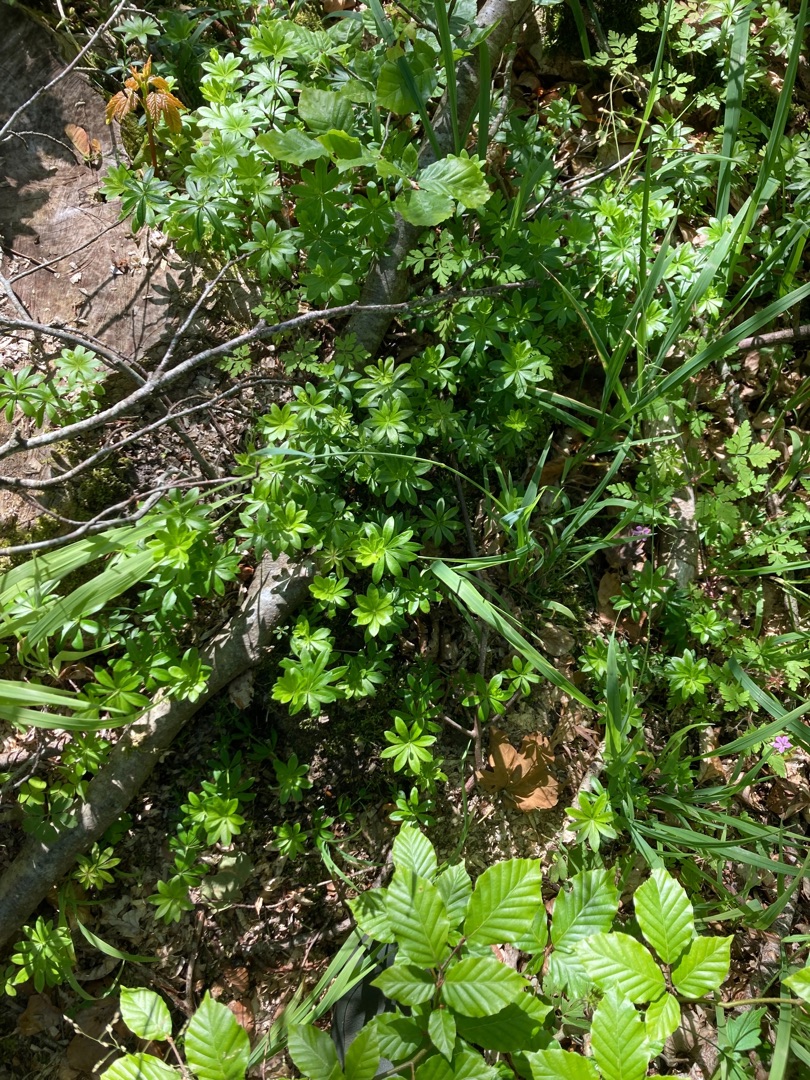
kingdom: Plantae
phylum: Tracheophyta
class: Magnoliopsida
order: Gentianales
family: Rubiaceae
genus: Galium
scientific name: Galium odoratum
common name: Skovmærke
